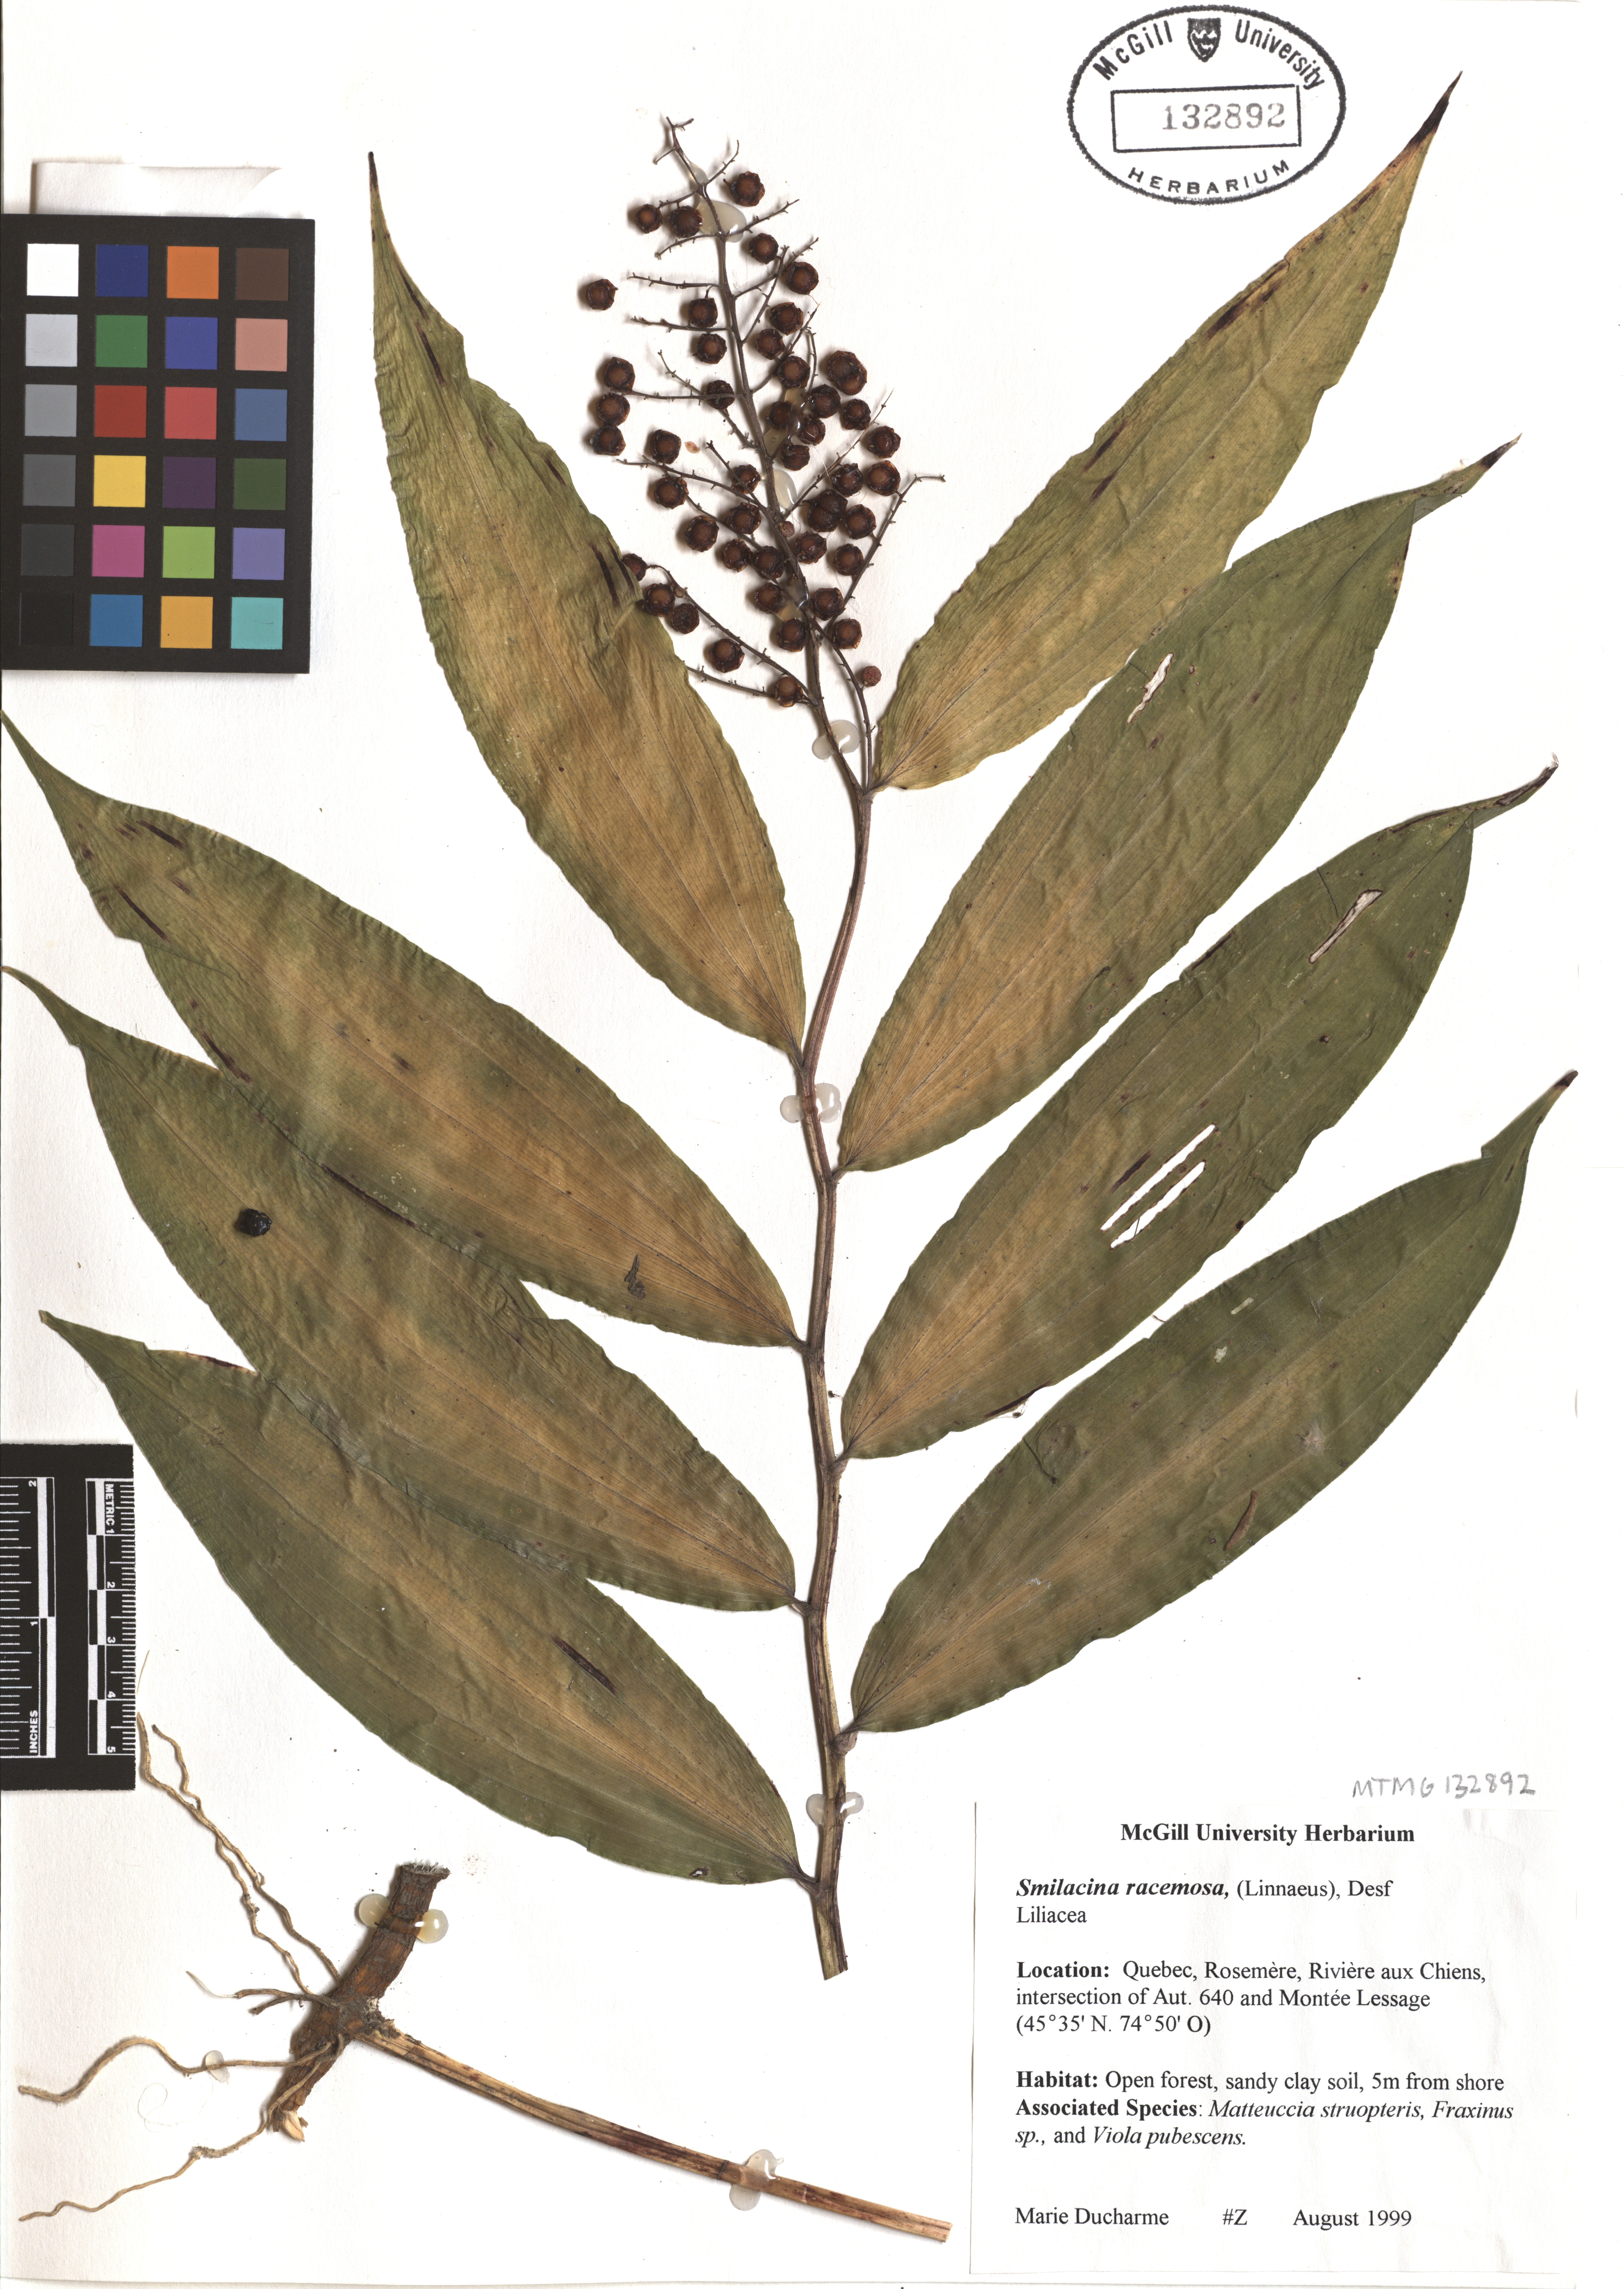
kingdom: Plantae
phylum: Tracheophyta
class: Liliopsida
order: Asparagales
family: Asparagaceae
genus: Maianthemum
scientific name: Maianthemum racemosum
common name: False spikenard
